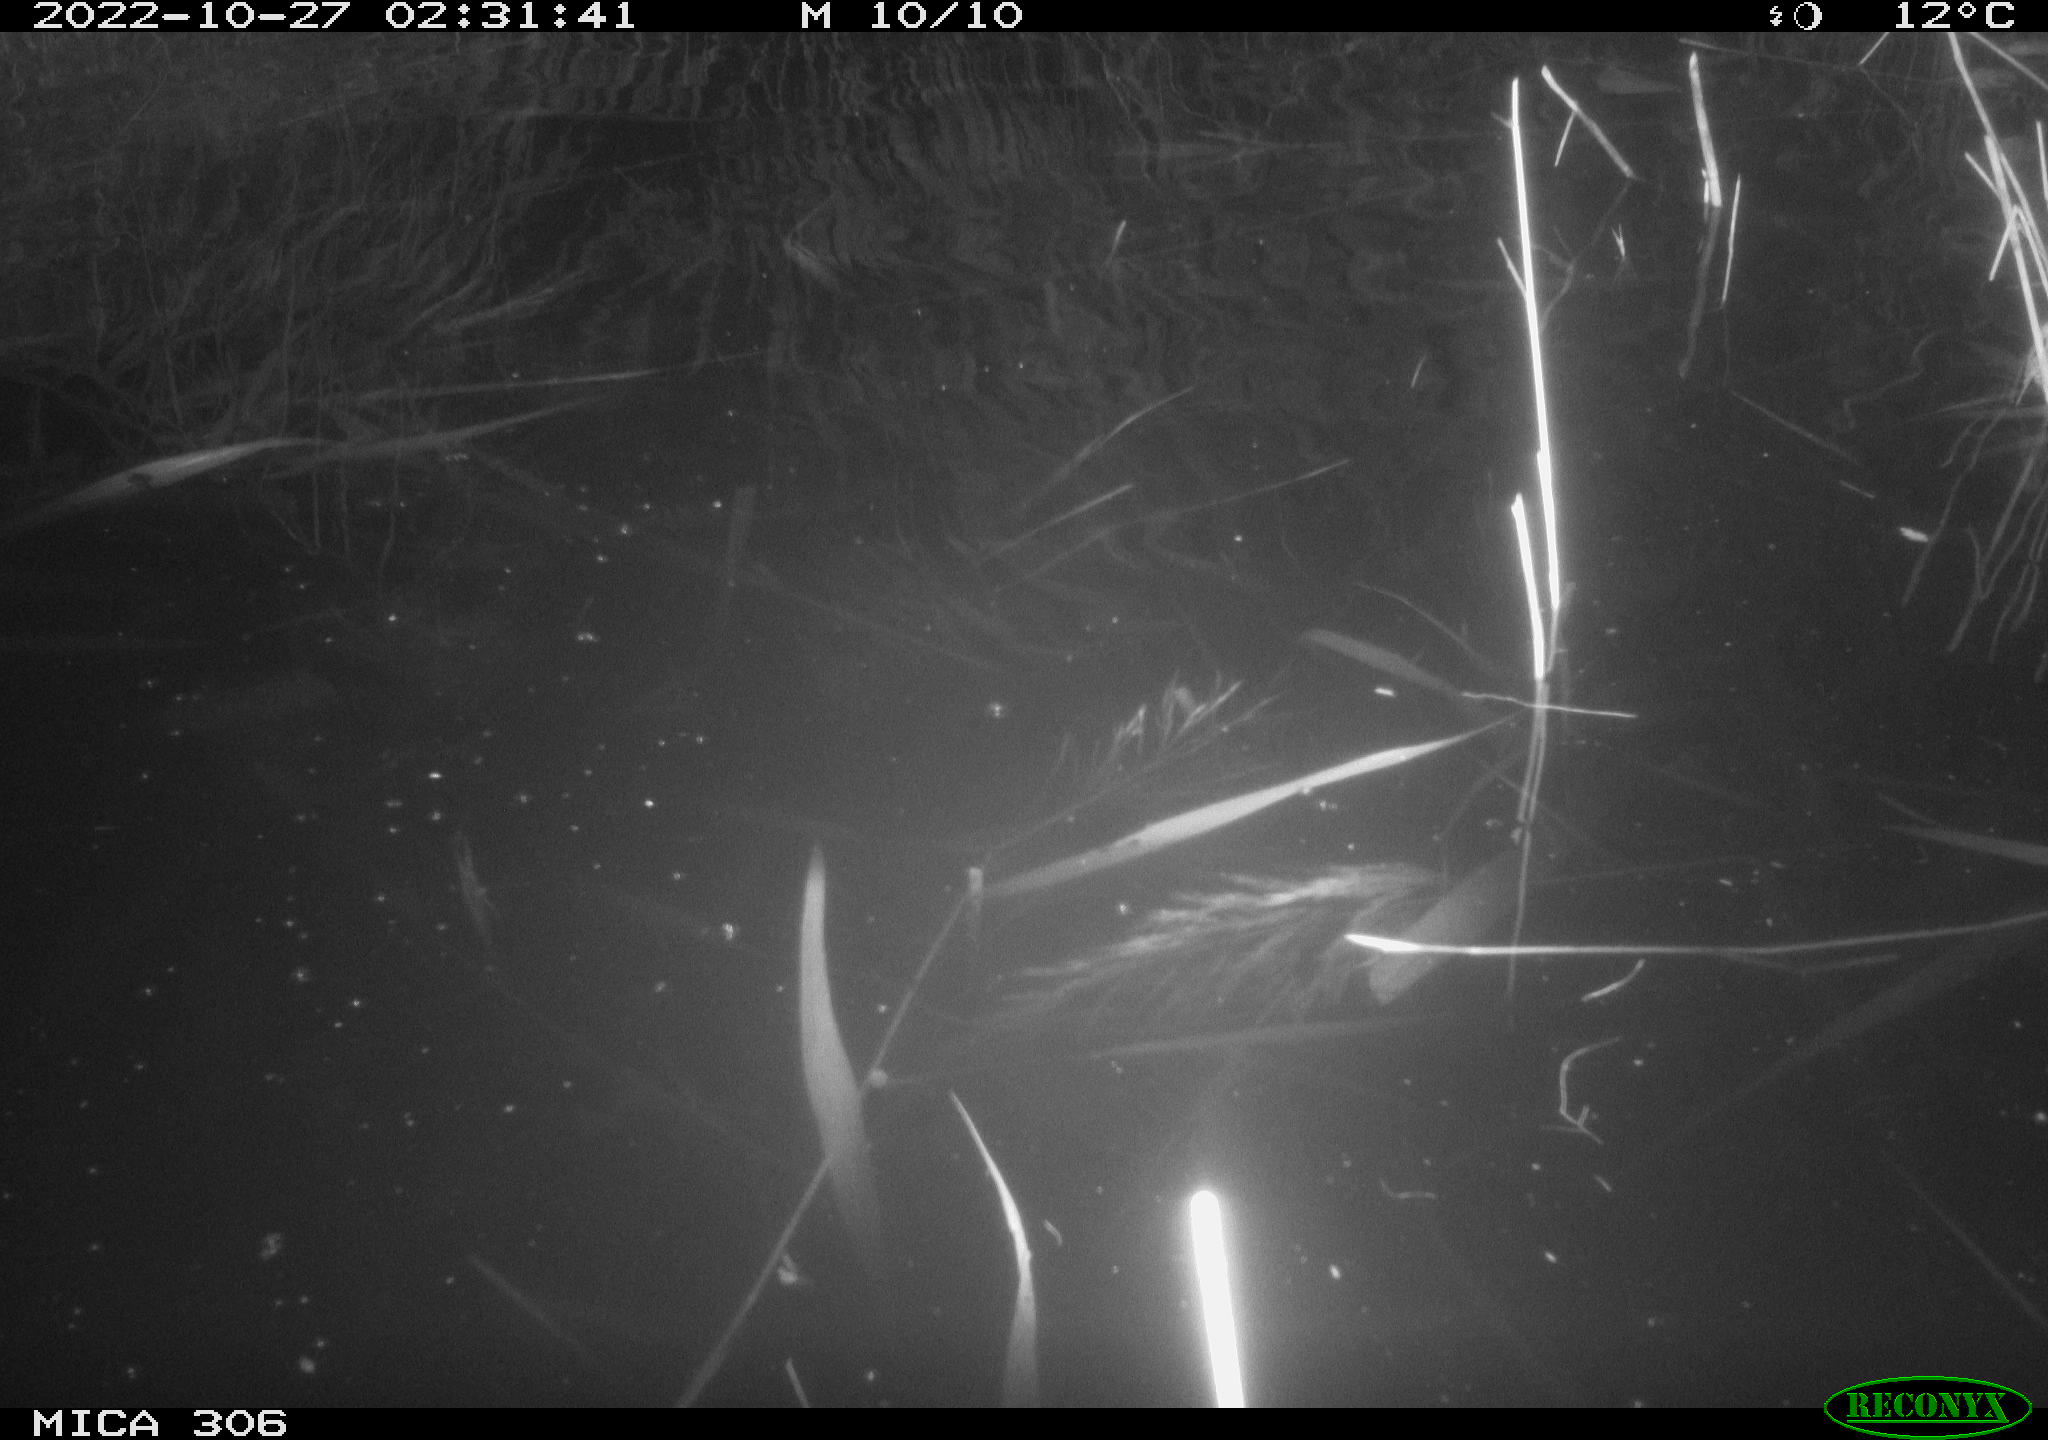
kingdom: Animalia
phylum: Chordata
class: Mammalia
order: Rodentia
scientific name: Rodentia
